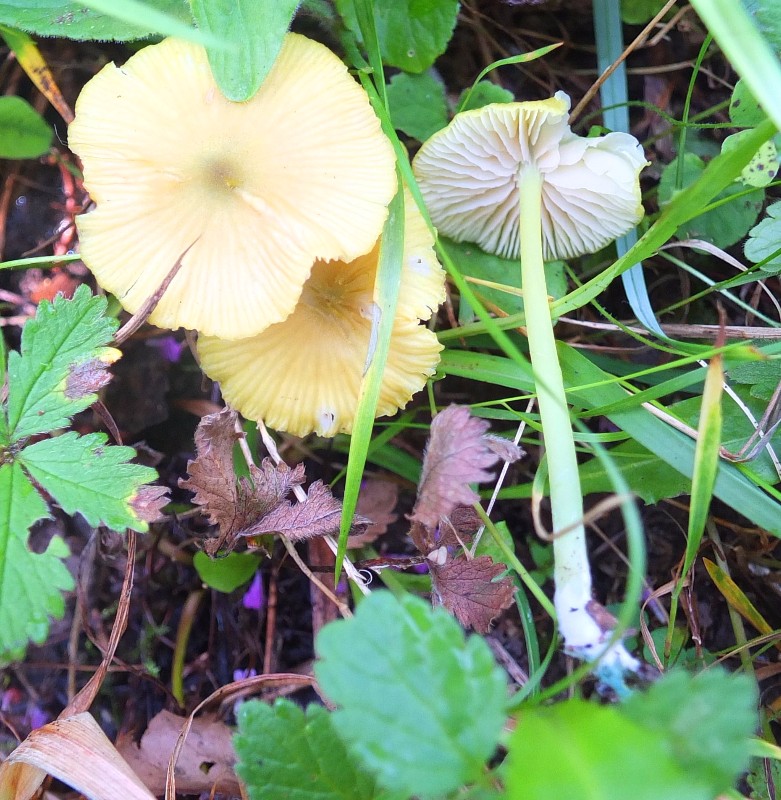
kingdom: Fungi
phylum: Basidiomycota
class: Agaricomycetes
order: Agaricales
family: Entolomataceae
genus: Entoloma
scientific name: Entoloma incanum
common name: grøngul rødblad
